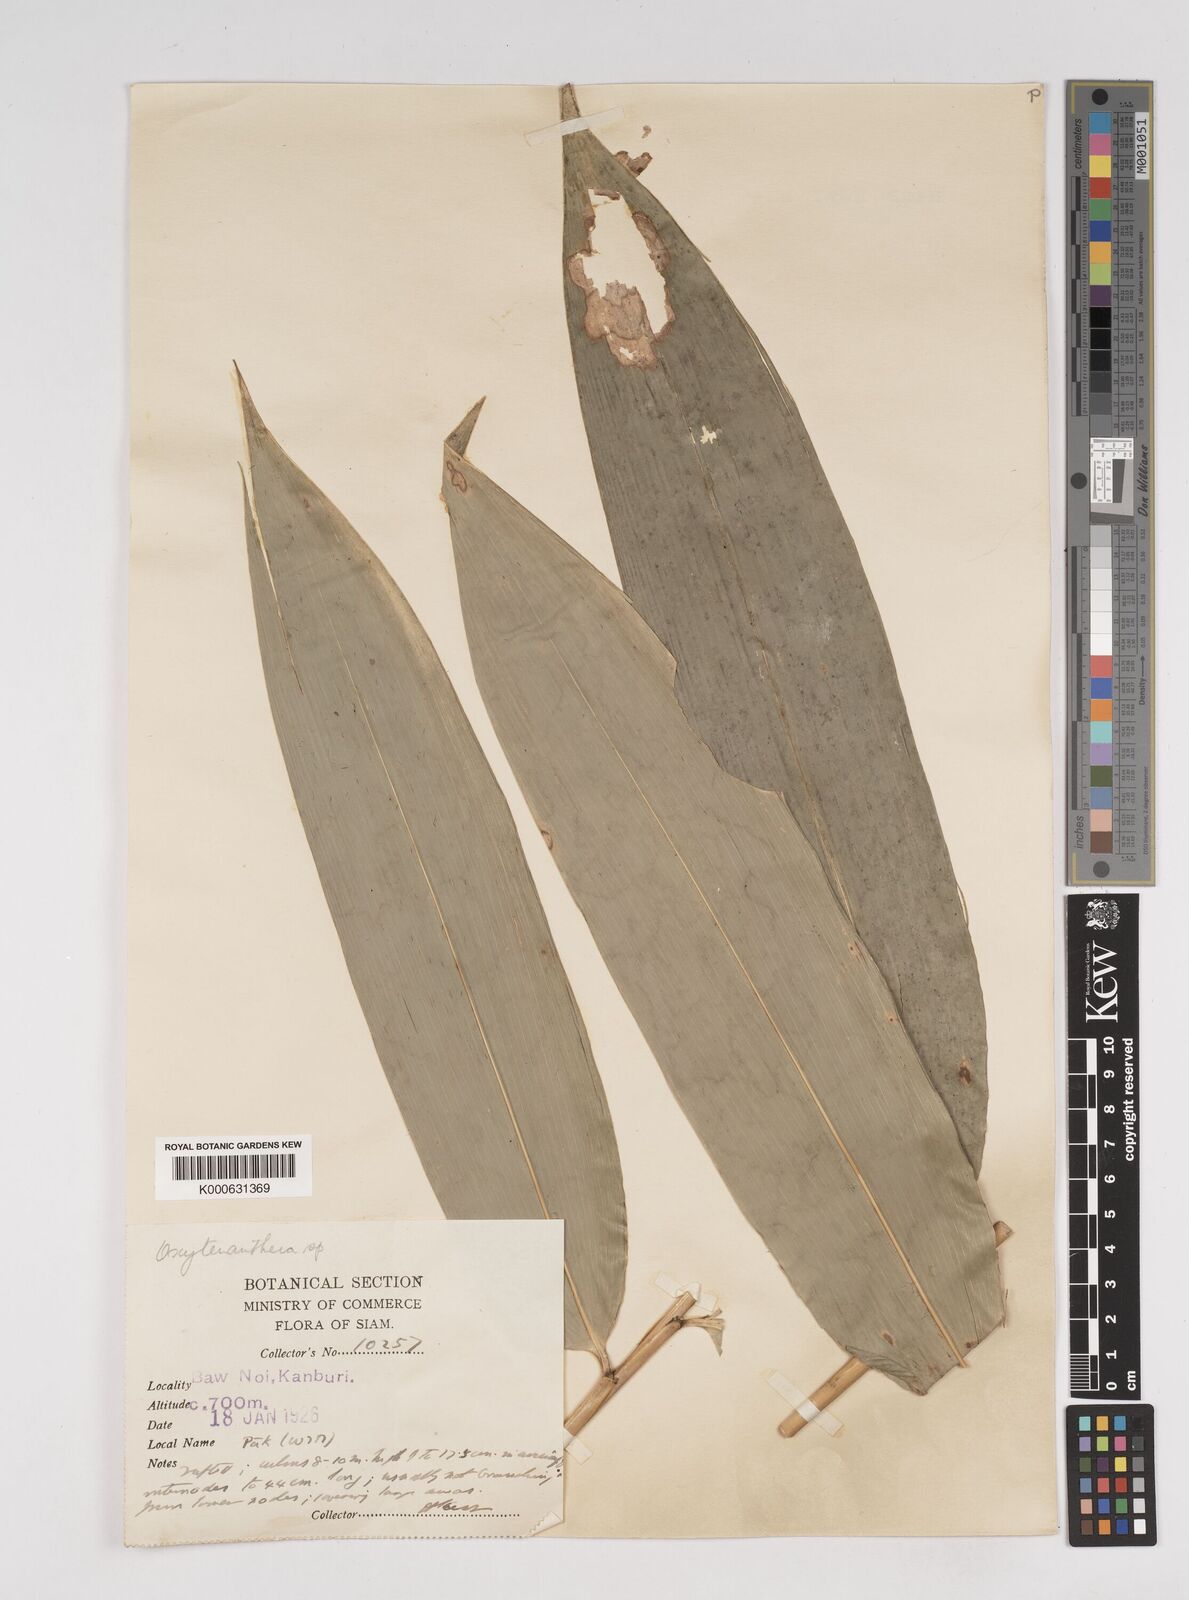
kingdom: Plantae
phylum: Tracheophyta
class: Liliopsida
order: Poales
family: Poaceae
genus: Dendrocalamus
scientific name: Dendrocalamus
